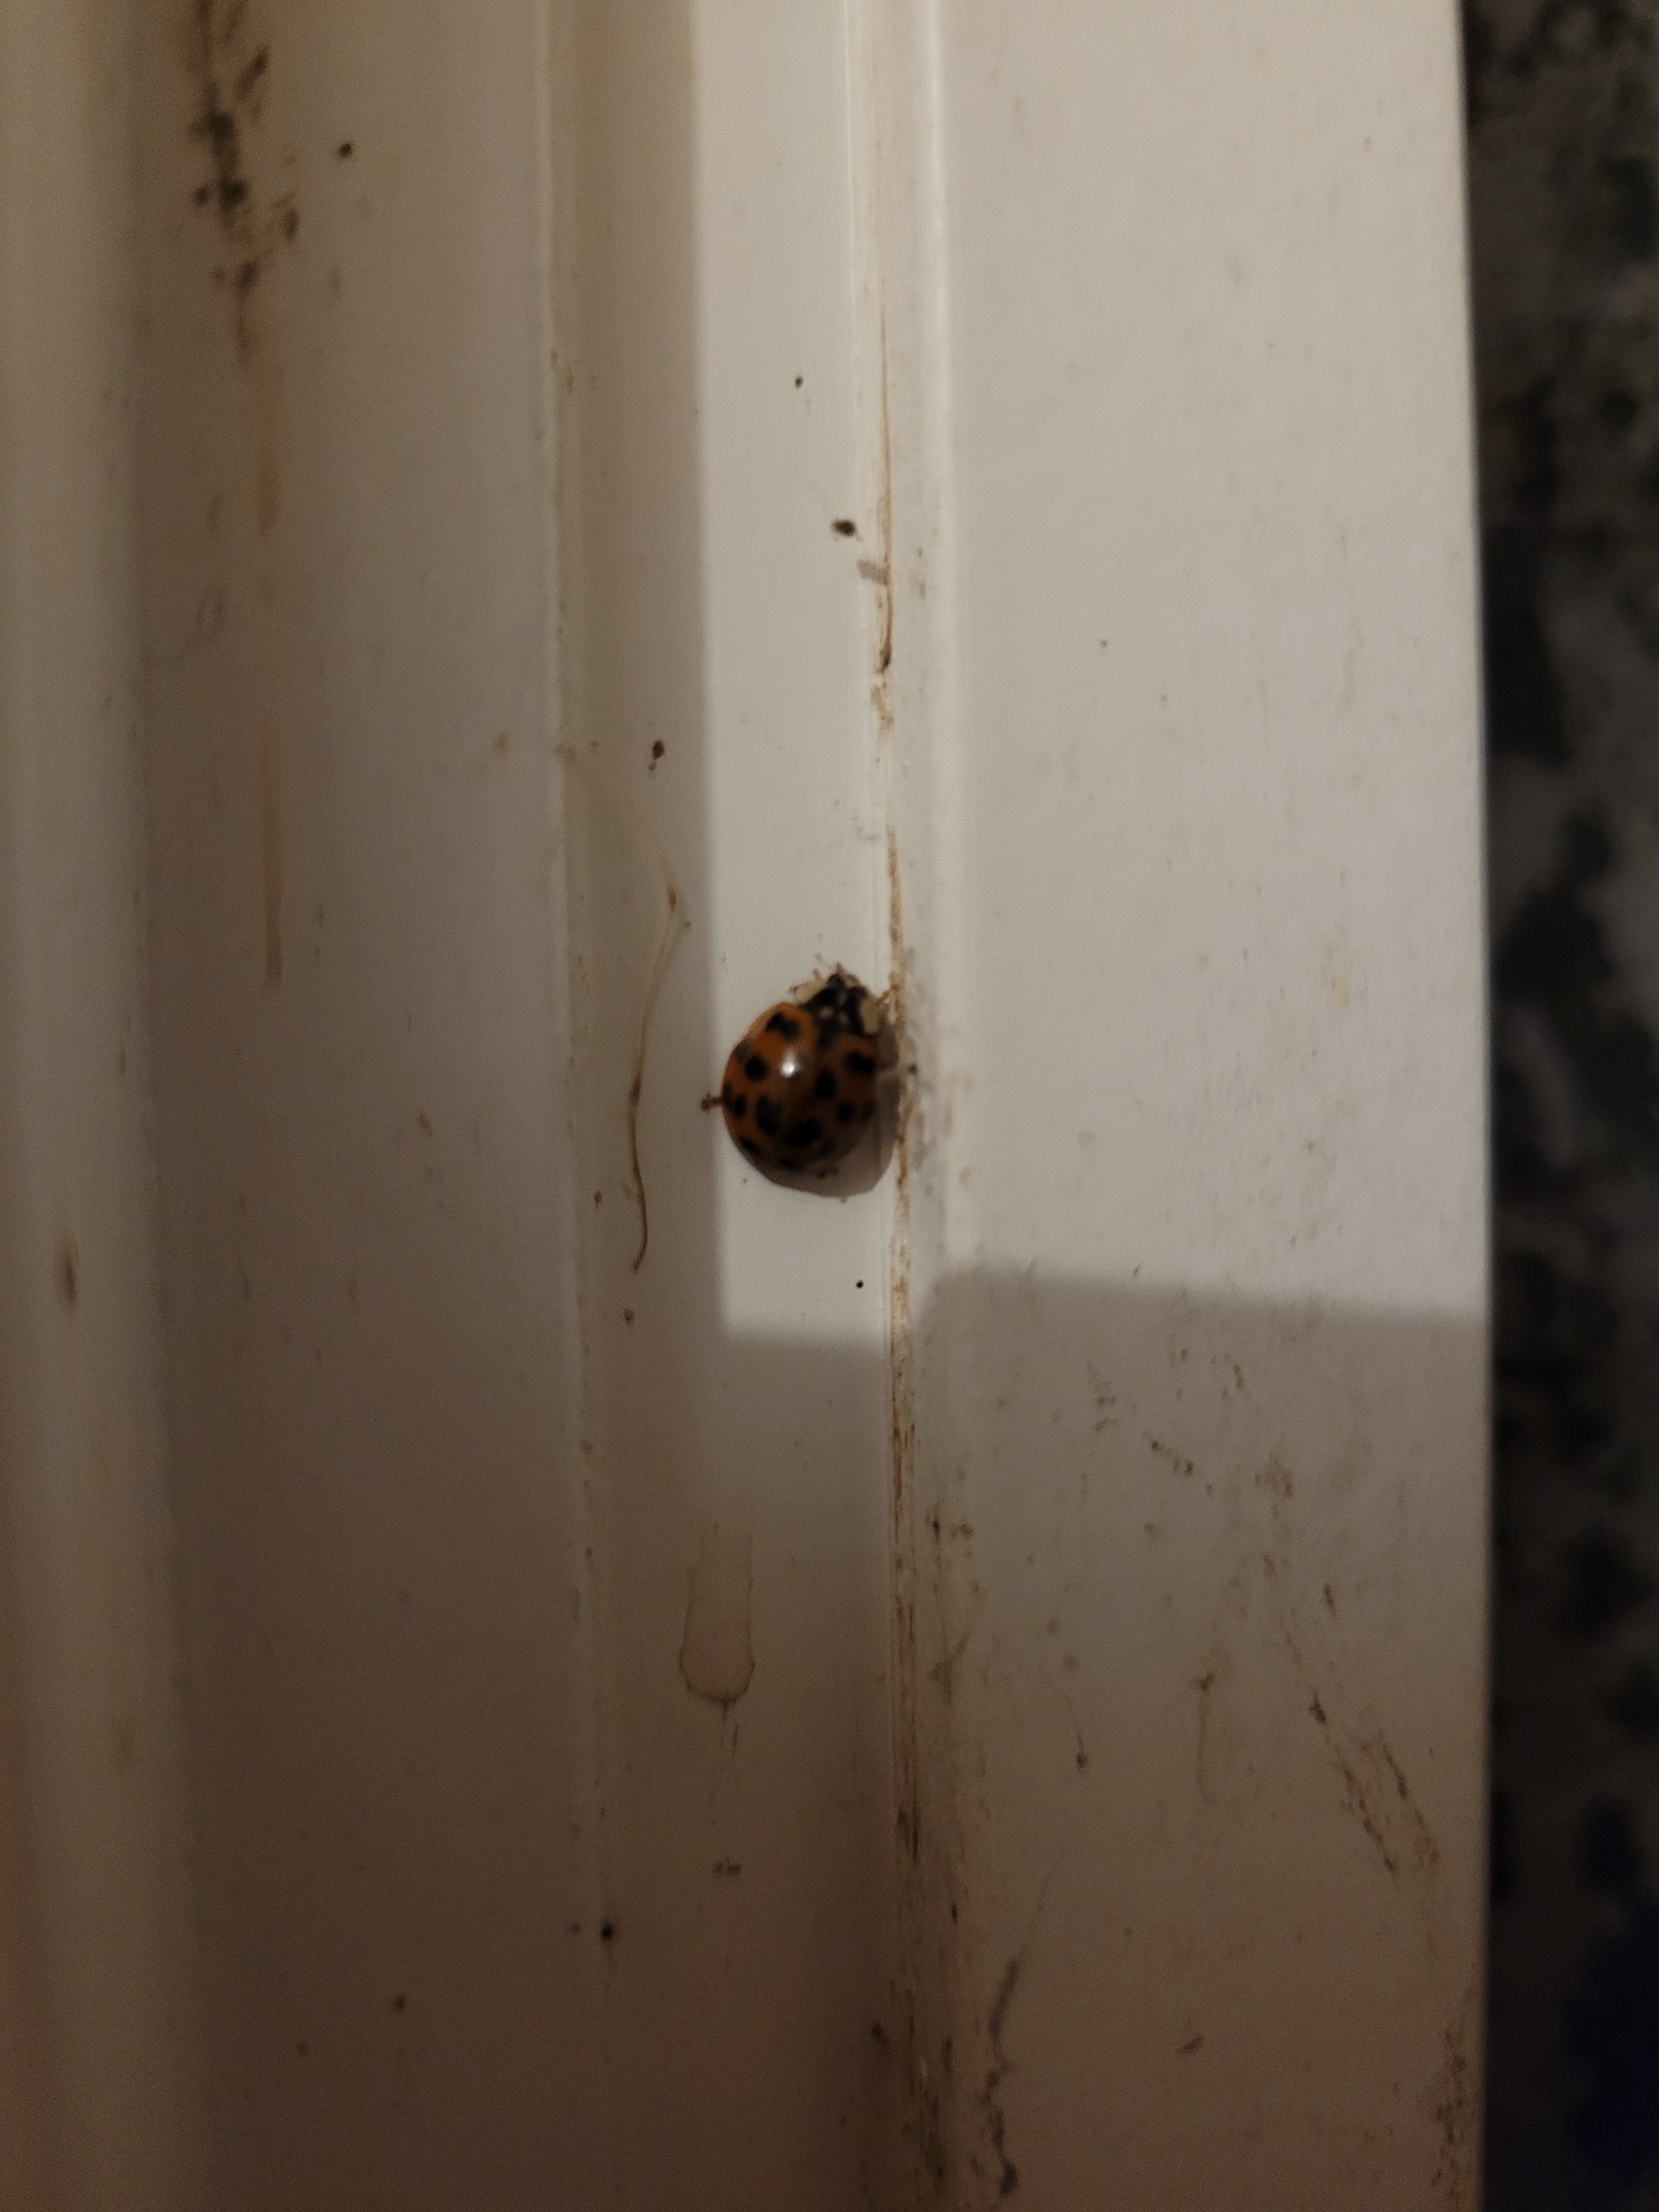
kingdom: Animalia
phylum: Arthropoda
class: Insecta
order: Coleoptera
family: Coccinellidae
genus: Harmonia
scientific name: Harmonia axyridis
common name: Harlekinmariehøne
